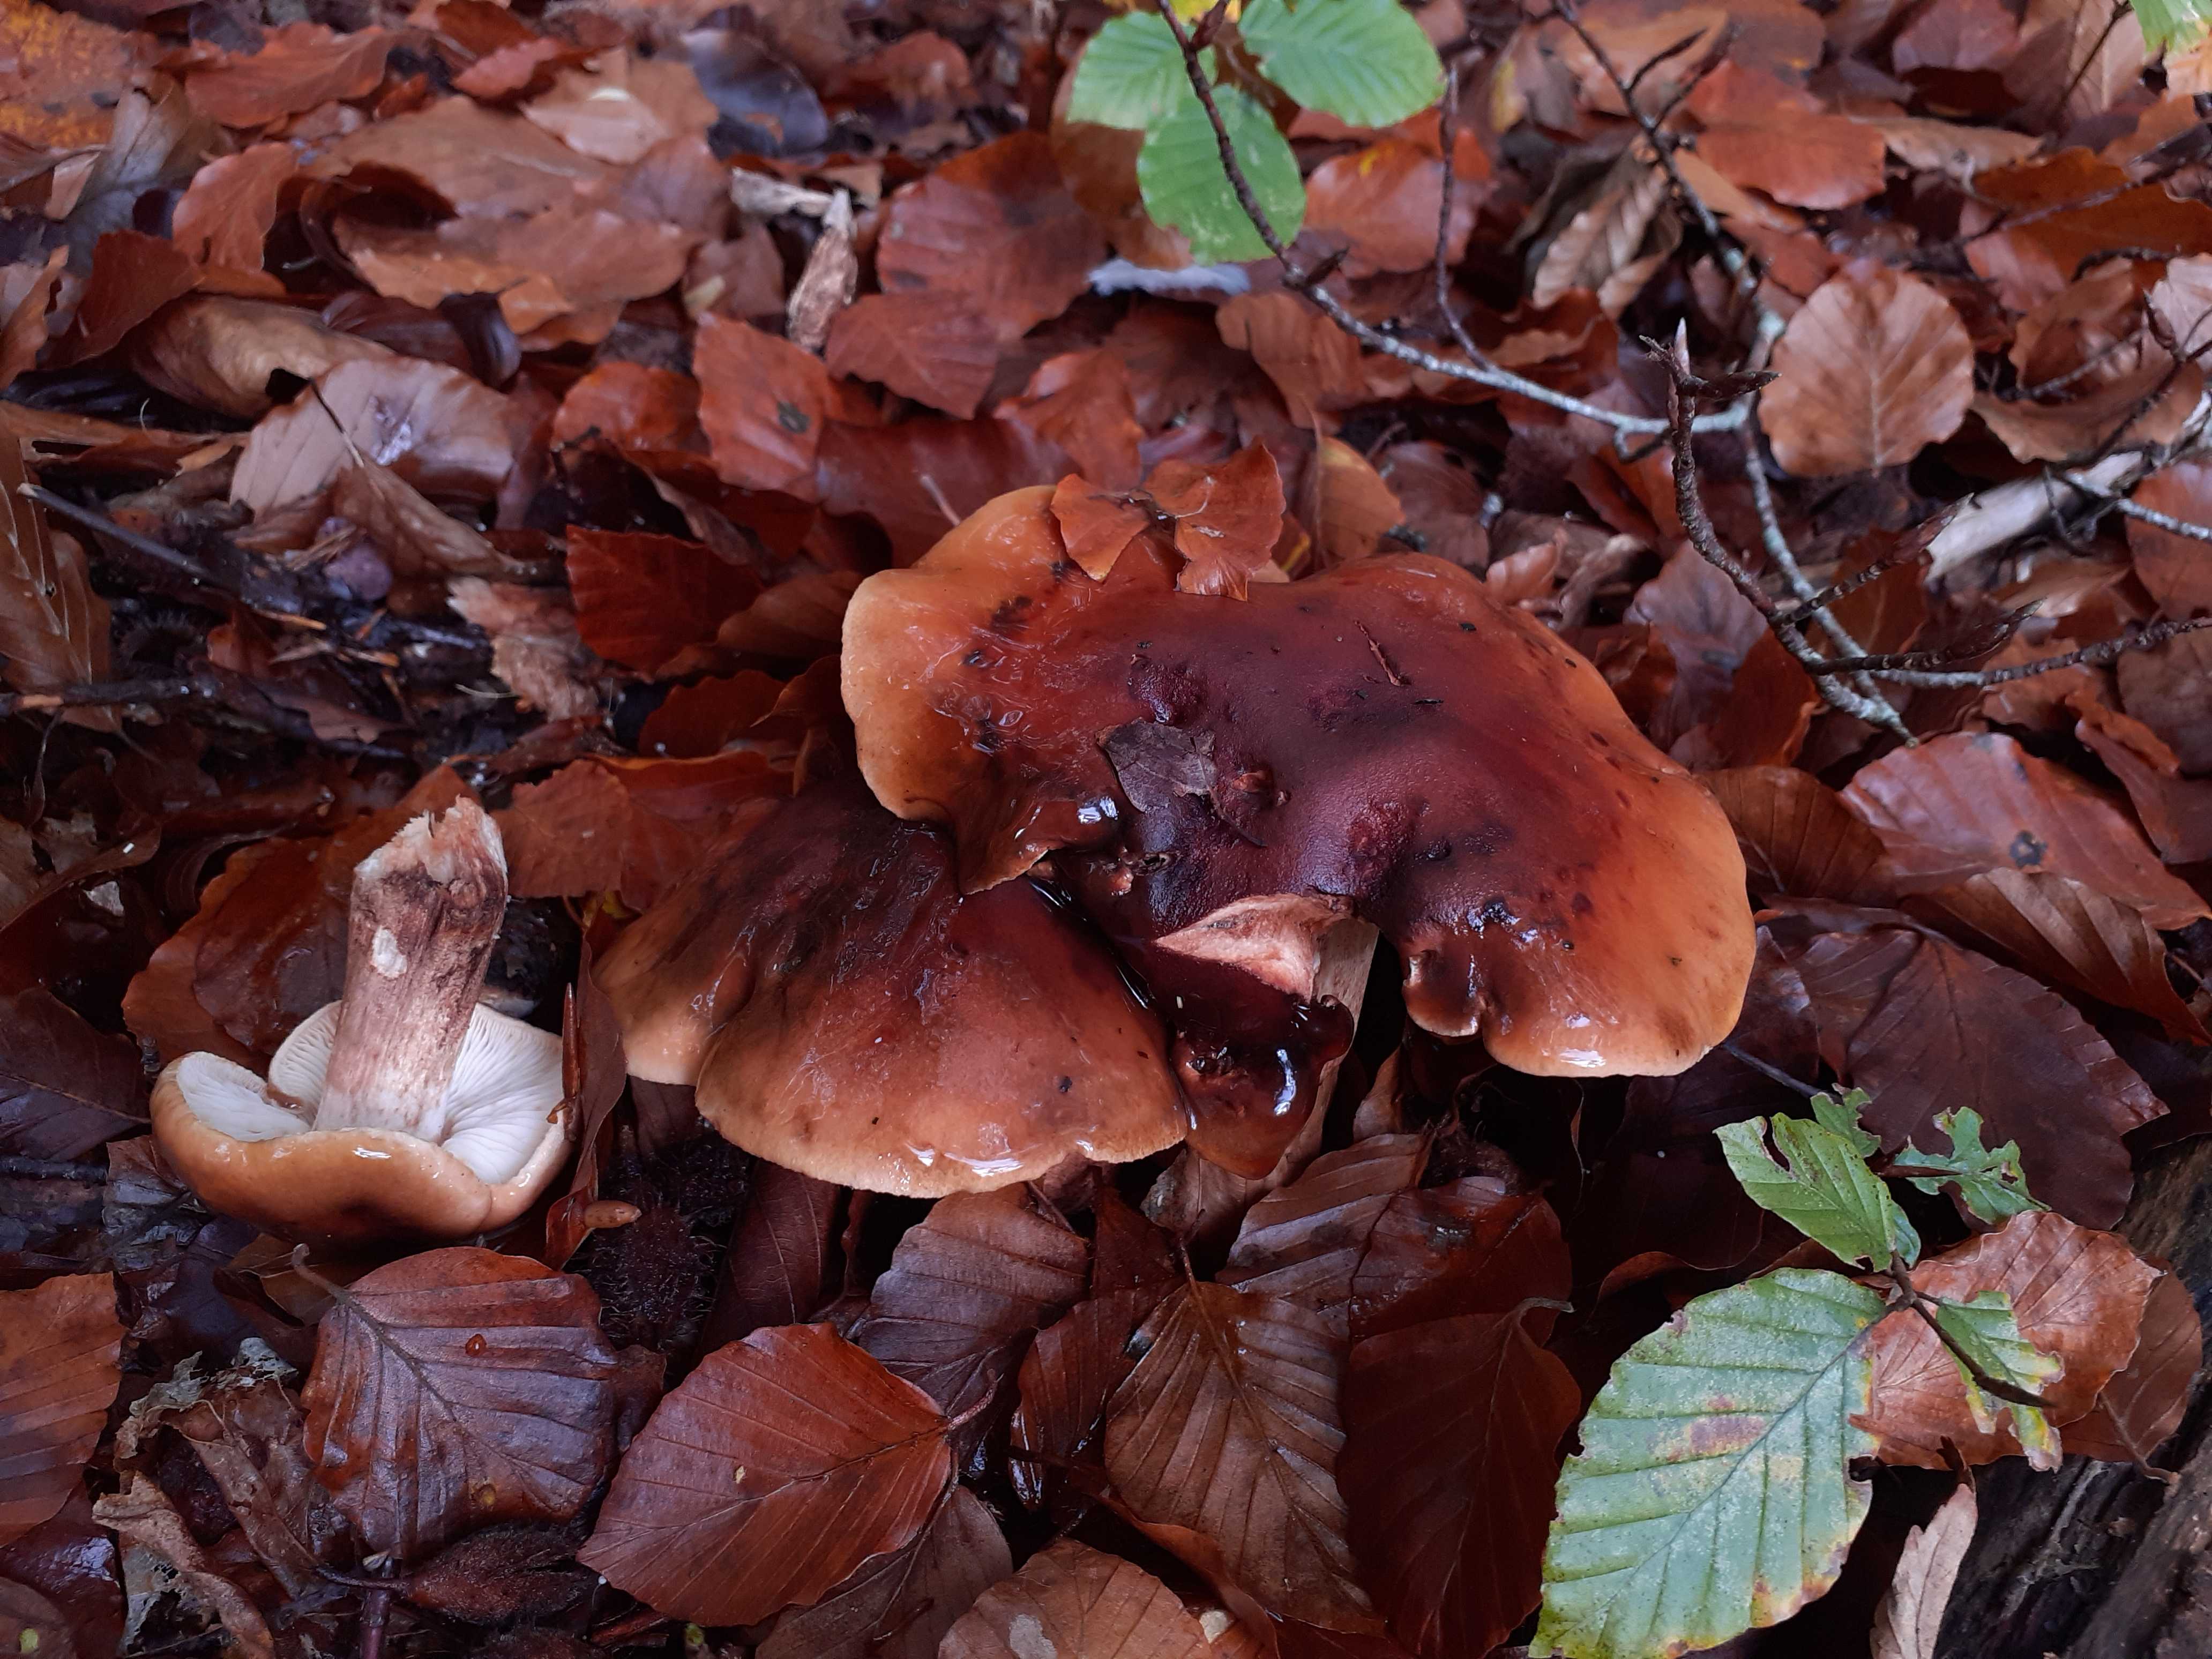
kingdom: Fungi
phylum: Basidiomycota
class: Agaricomycetes
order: Agaricales
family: Tricholomataceae
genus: Tricholoma
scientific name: Tricholoma ustale
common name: sveden ridderhat
